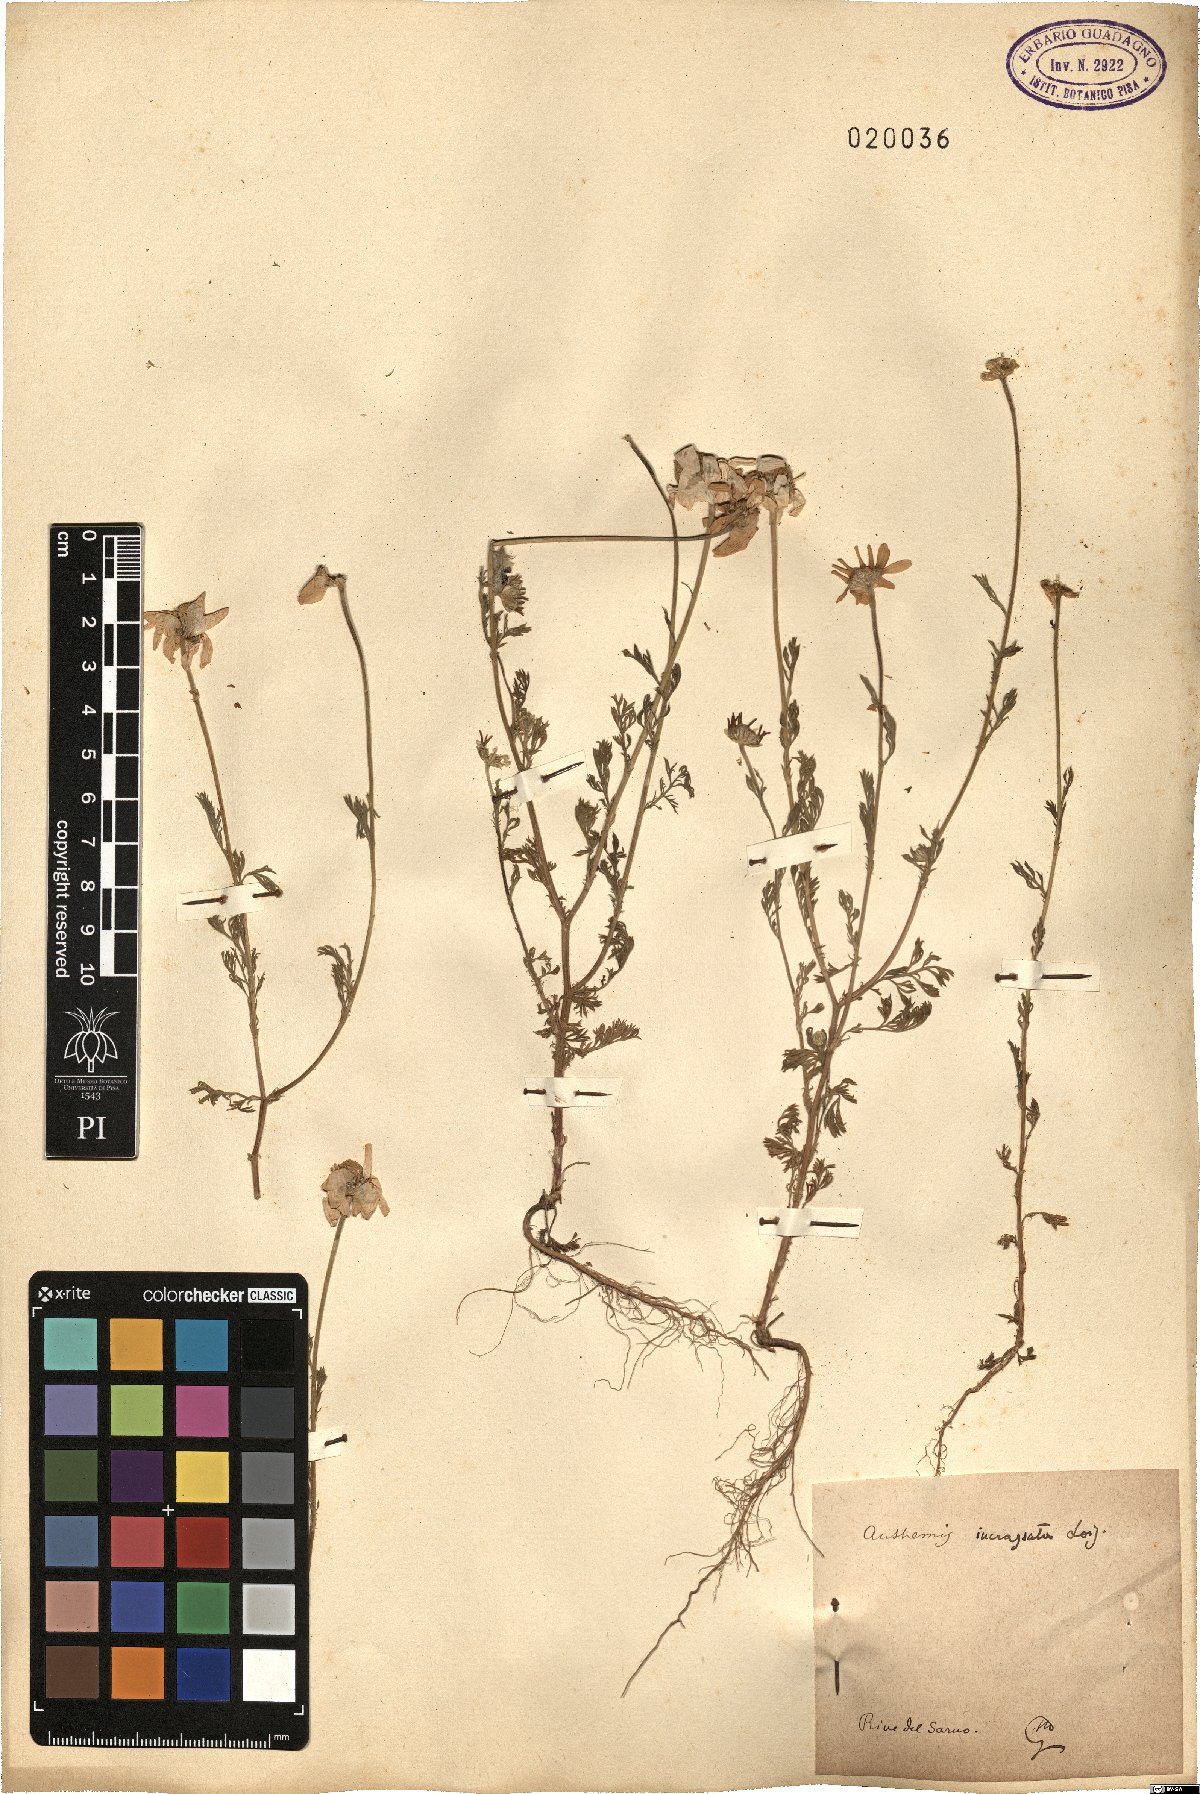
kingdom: Plantae
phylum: Tracheophyta
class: Magnoliopsida
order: Asterales
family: Asteraceae
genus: Anthemis
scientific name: Anthemis arvensis
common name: Corn chamomile
